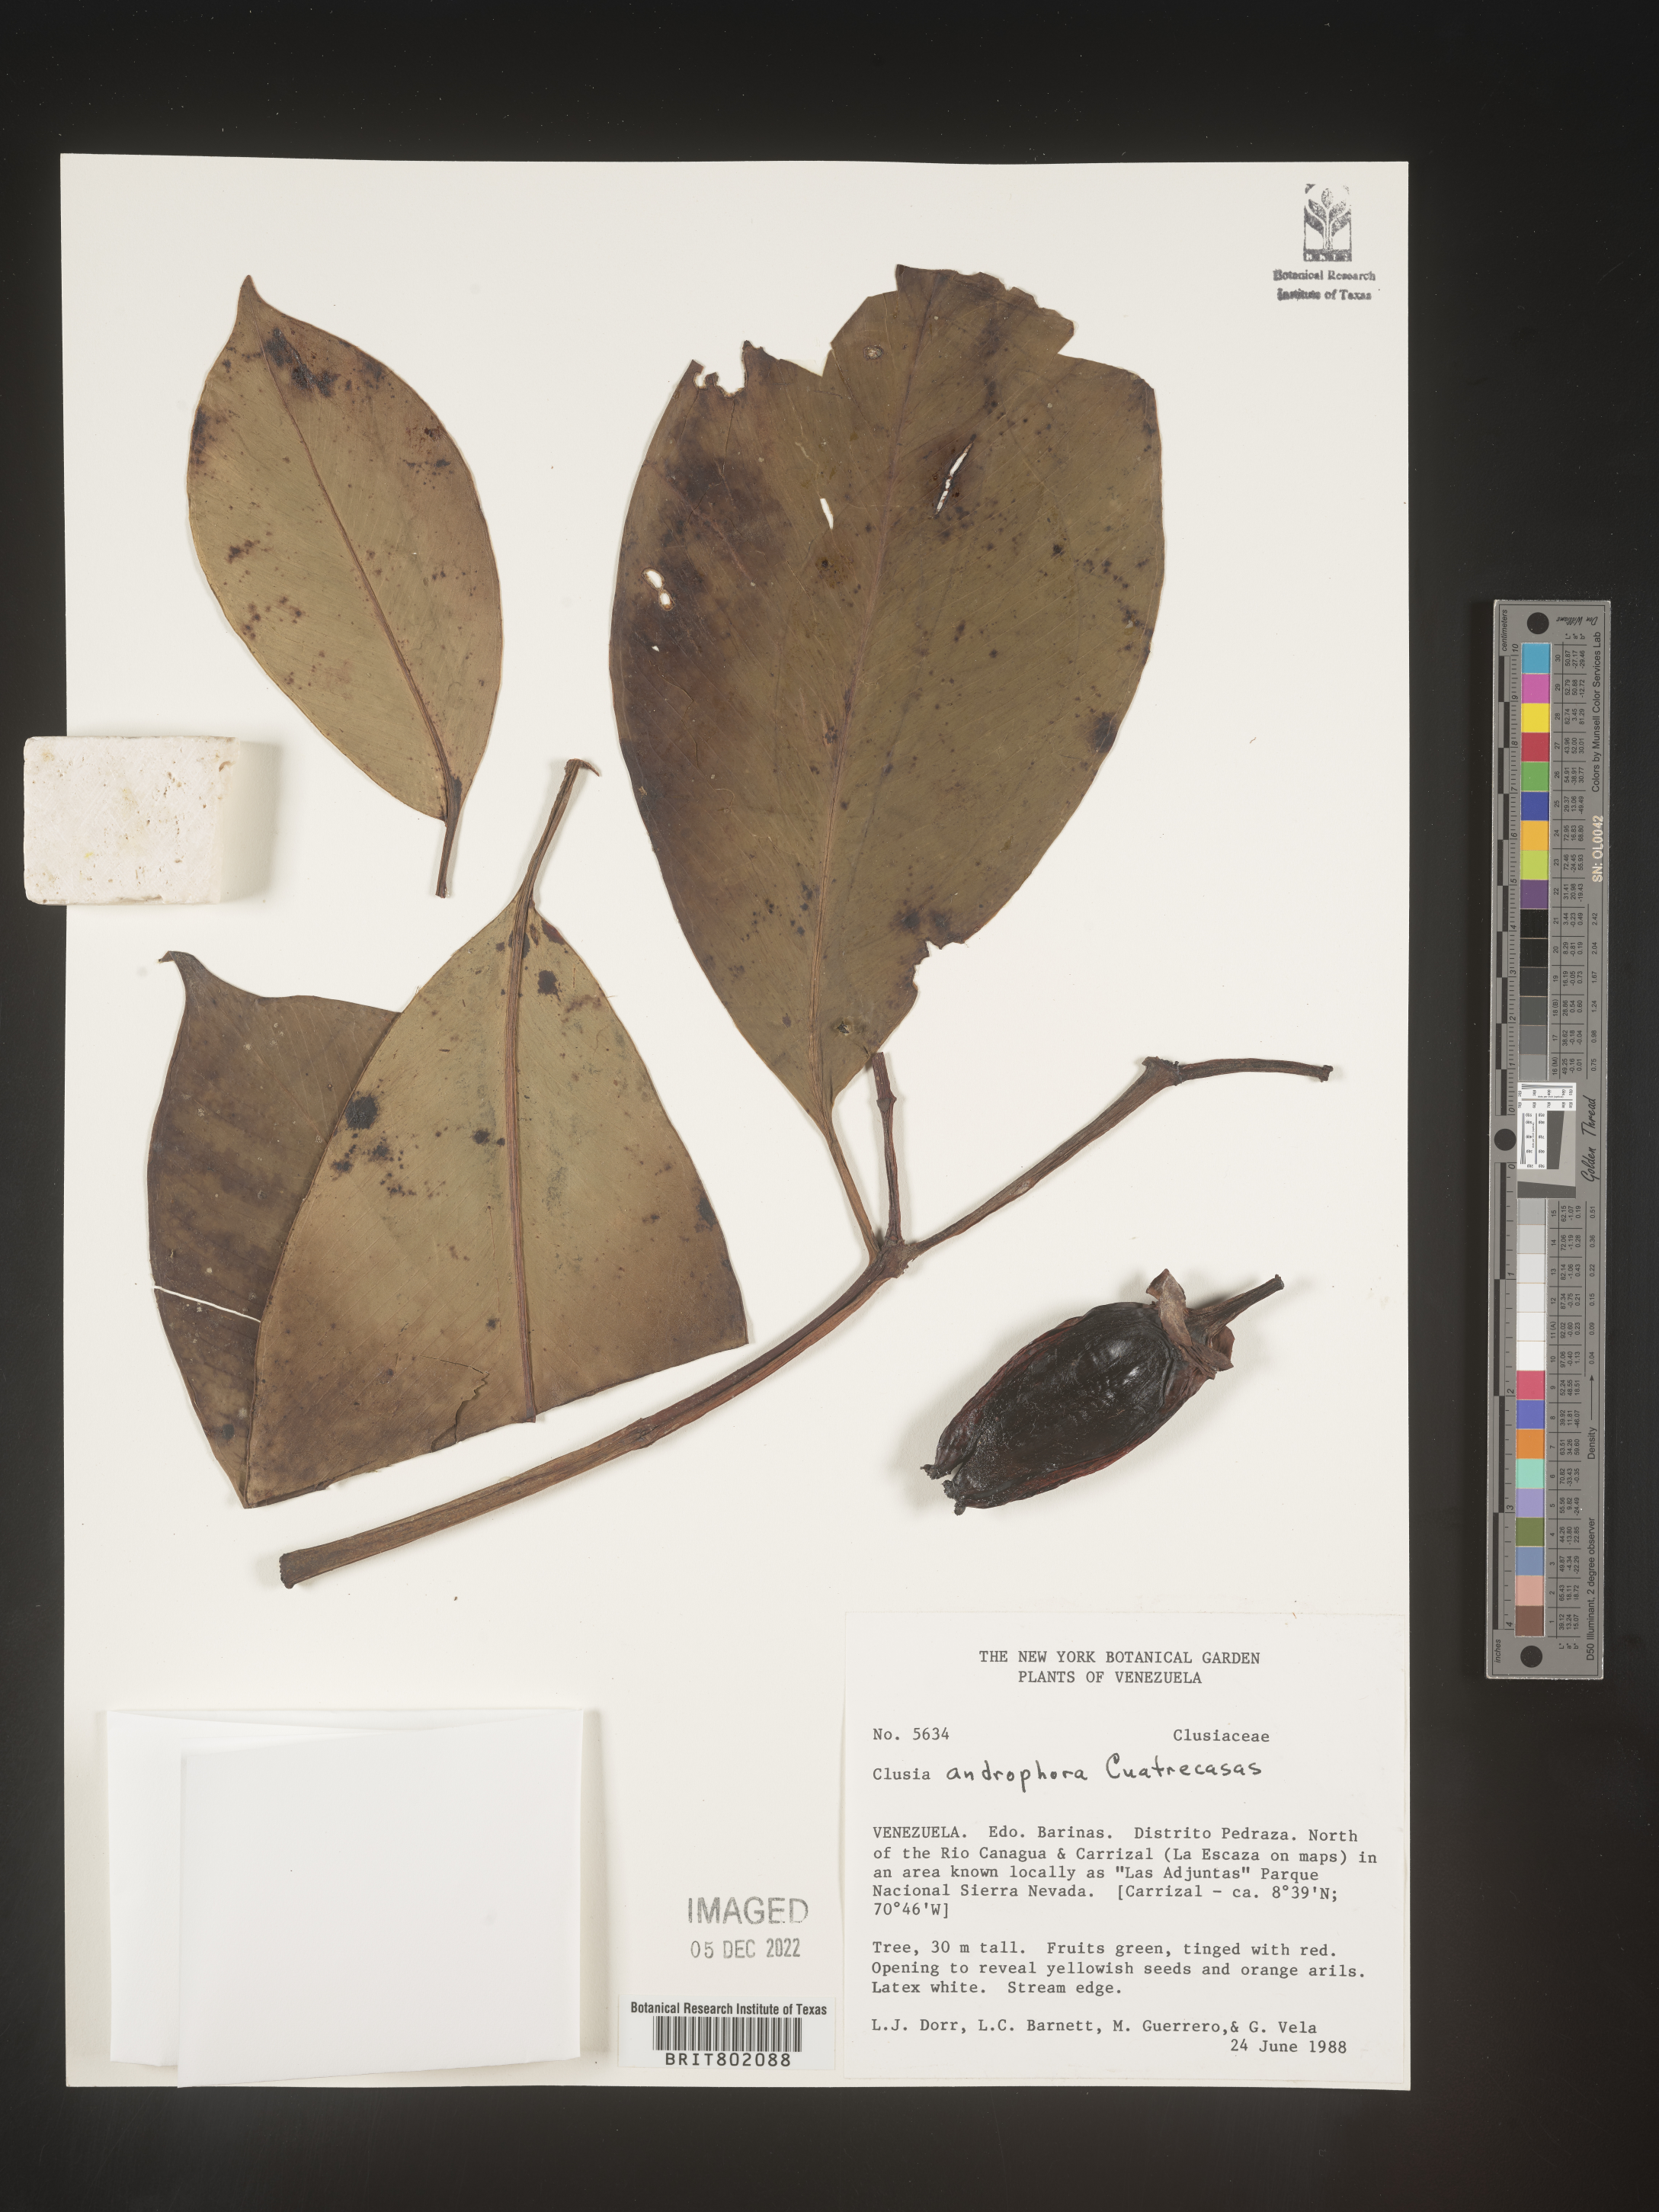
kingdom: Plantae
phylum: Tracheophyta
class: Magnoliopsida
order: Malpighiales
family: Clusiaceae
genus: Clusia
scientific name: Clusia androphora
